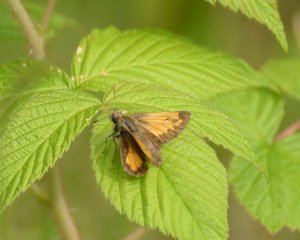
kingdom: Animalia
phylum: Arthropoda
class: Insecta
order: Lepidoptera
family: Hesperiidae
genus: Lon
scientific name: Lon hobomok
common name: Hobomok Skipper
